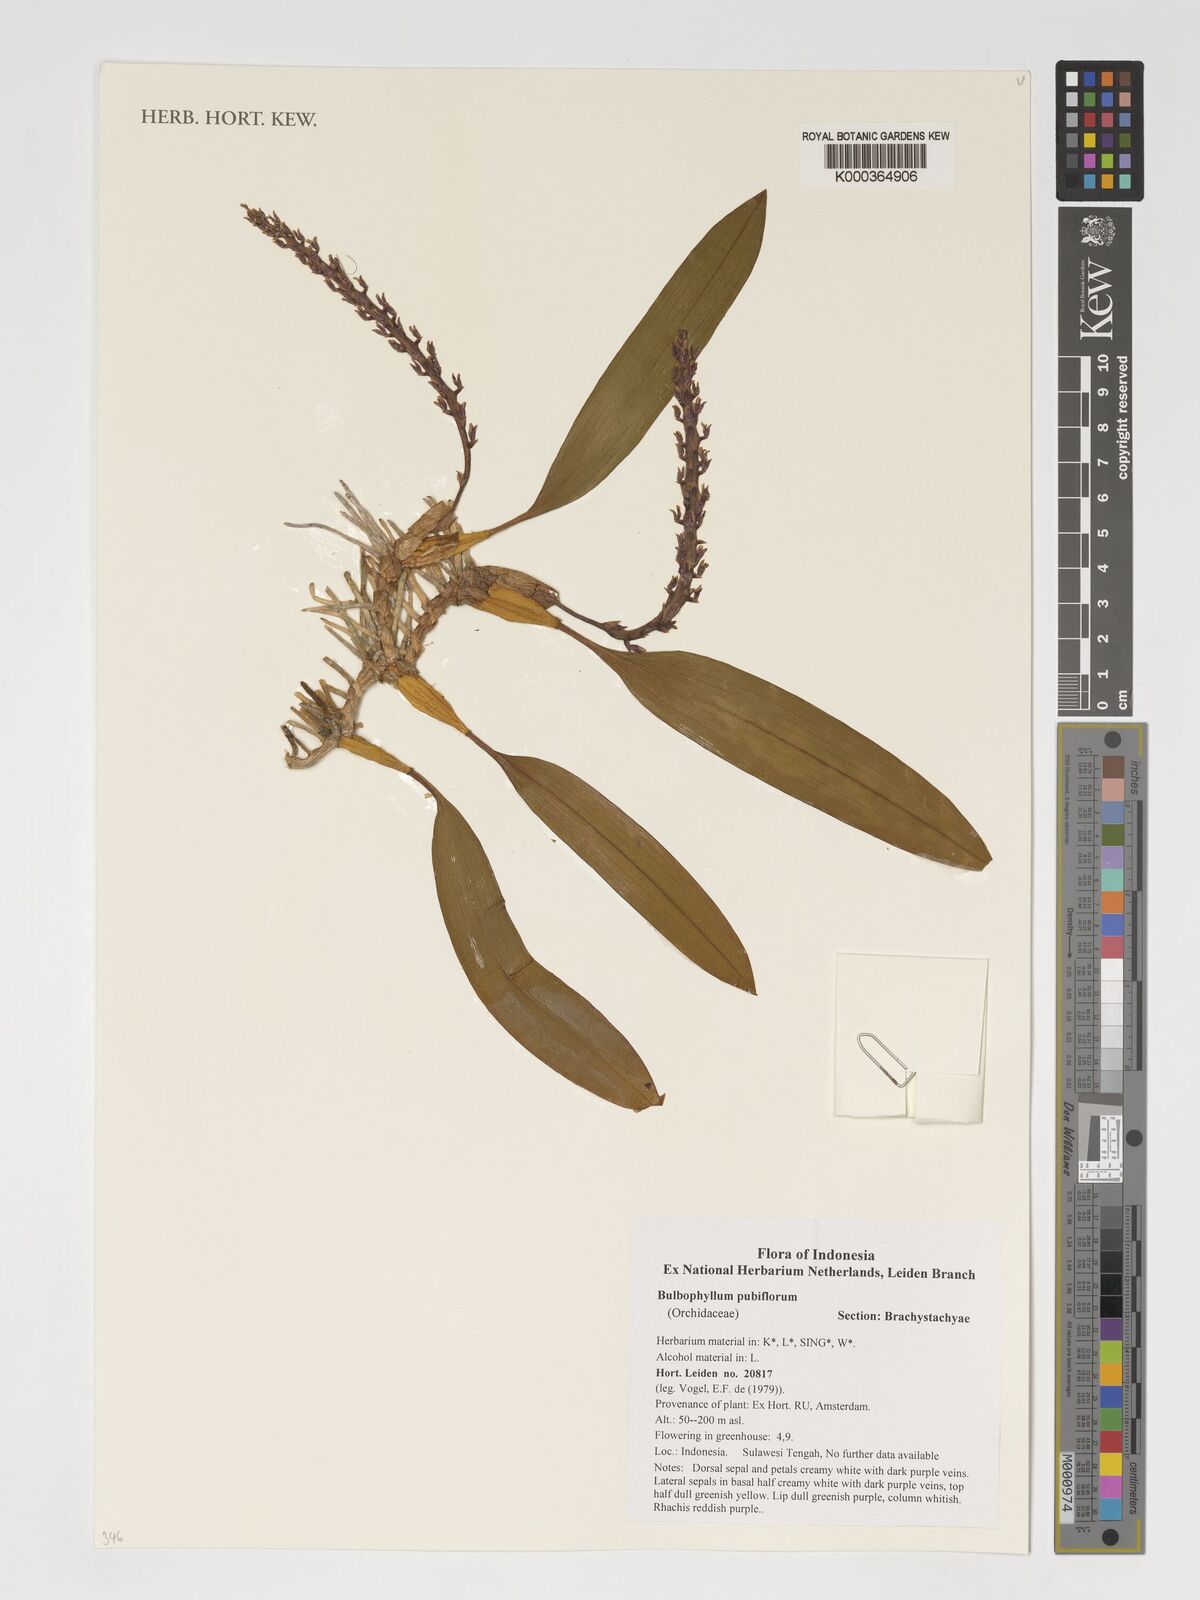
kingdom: Plantae
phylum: Tracheophyta
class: Liliopsida
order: Asparagales
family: Orchidaceae
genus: Bulbophyllum
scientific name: Bulbophyllum pubiflorum
